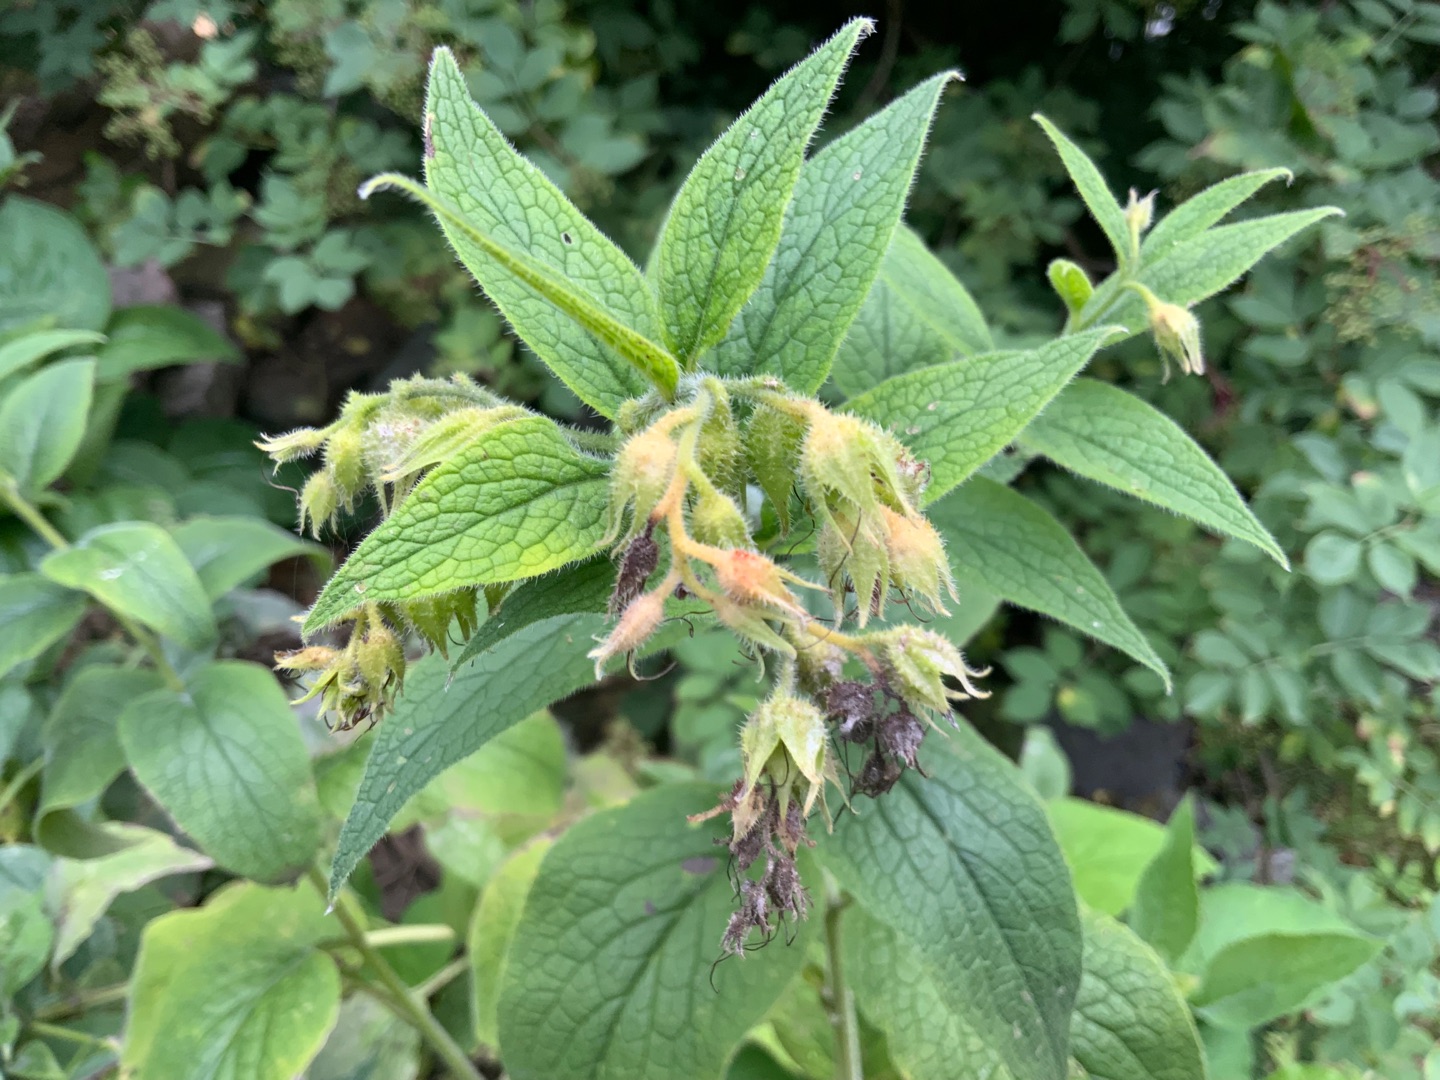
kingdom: Plantae
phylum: Tracheophyta
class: Magnoliopsida
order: Boraginales
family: Boraginaceae
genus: Symphytum
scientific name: Symphytum
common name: Kulsukkerslægten
